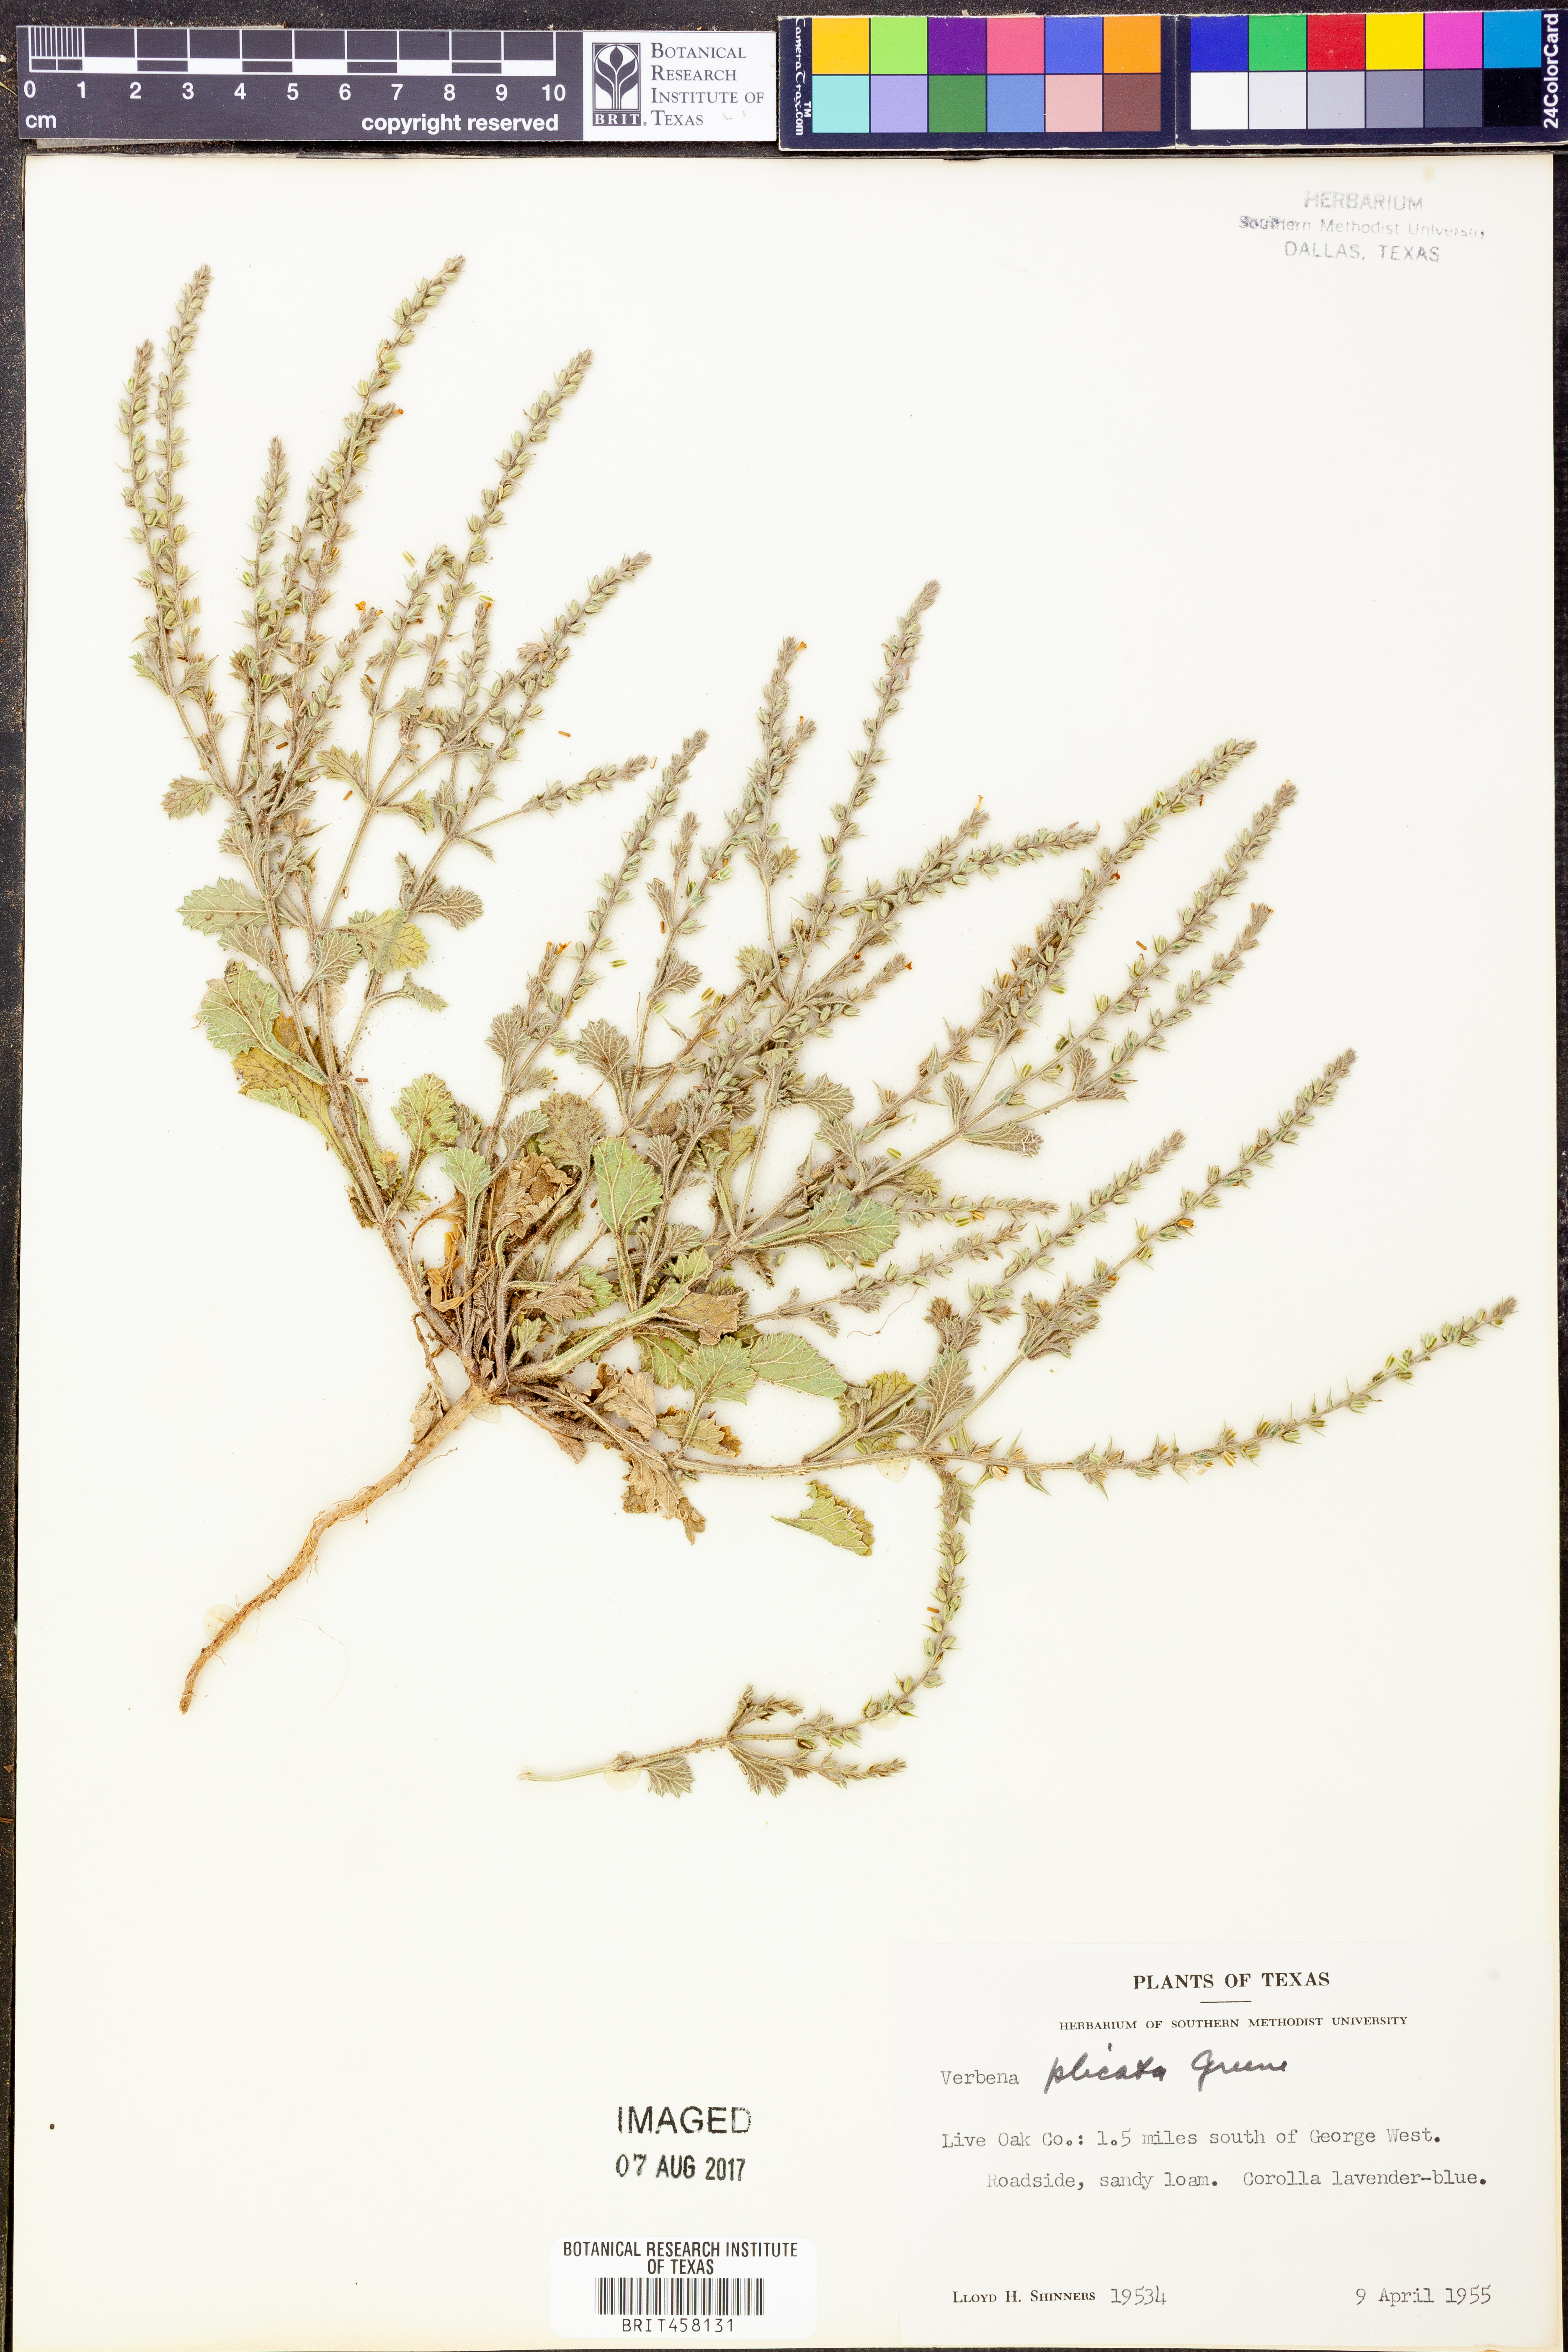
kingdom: Plantae
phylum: Tracheophyta
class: Magnoliopsida
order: Lamiales
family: Verbenaceae
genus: Verbena
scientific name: Verbena plicata
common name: Fan-leaf vervain
